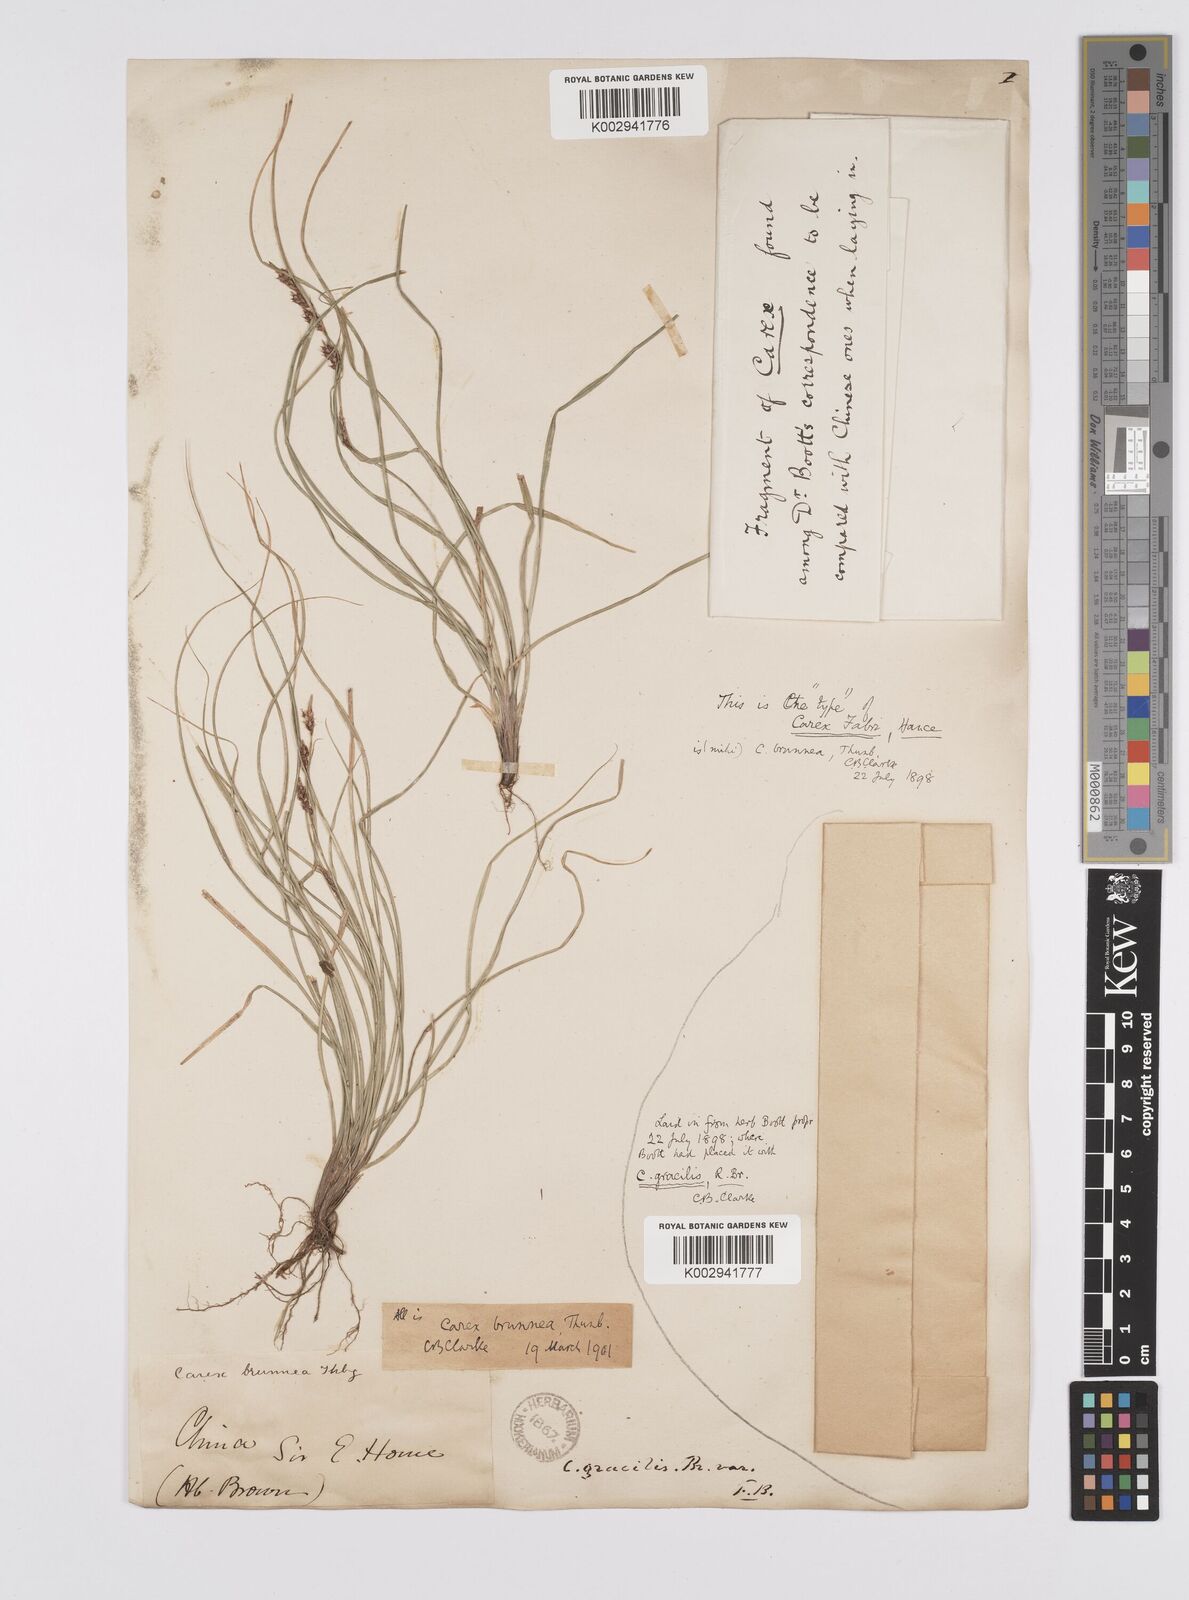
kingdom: Plantae
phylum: Tracheophyta
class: Liliopsida
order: Poales
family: Cyperaceae
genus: Carex
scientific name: Carex brunnea
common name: Greater brown sedge
